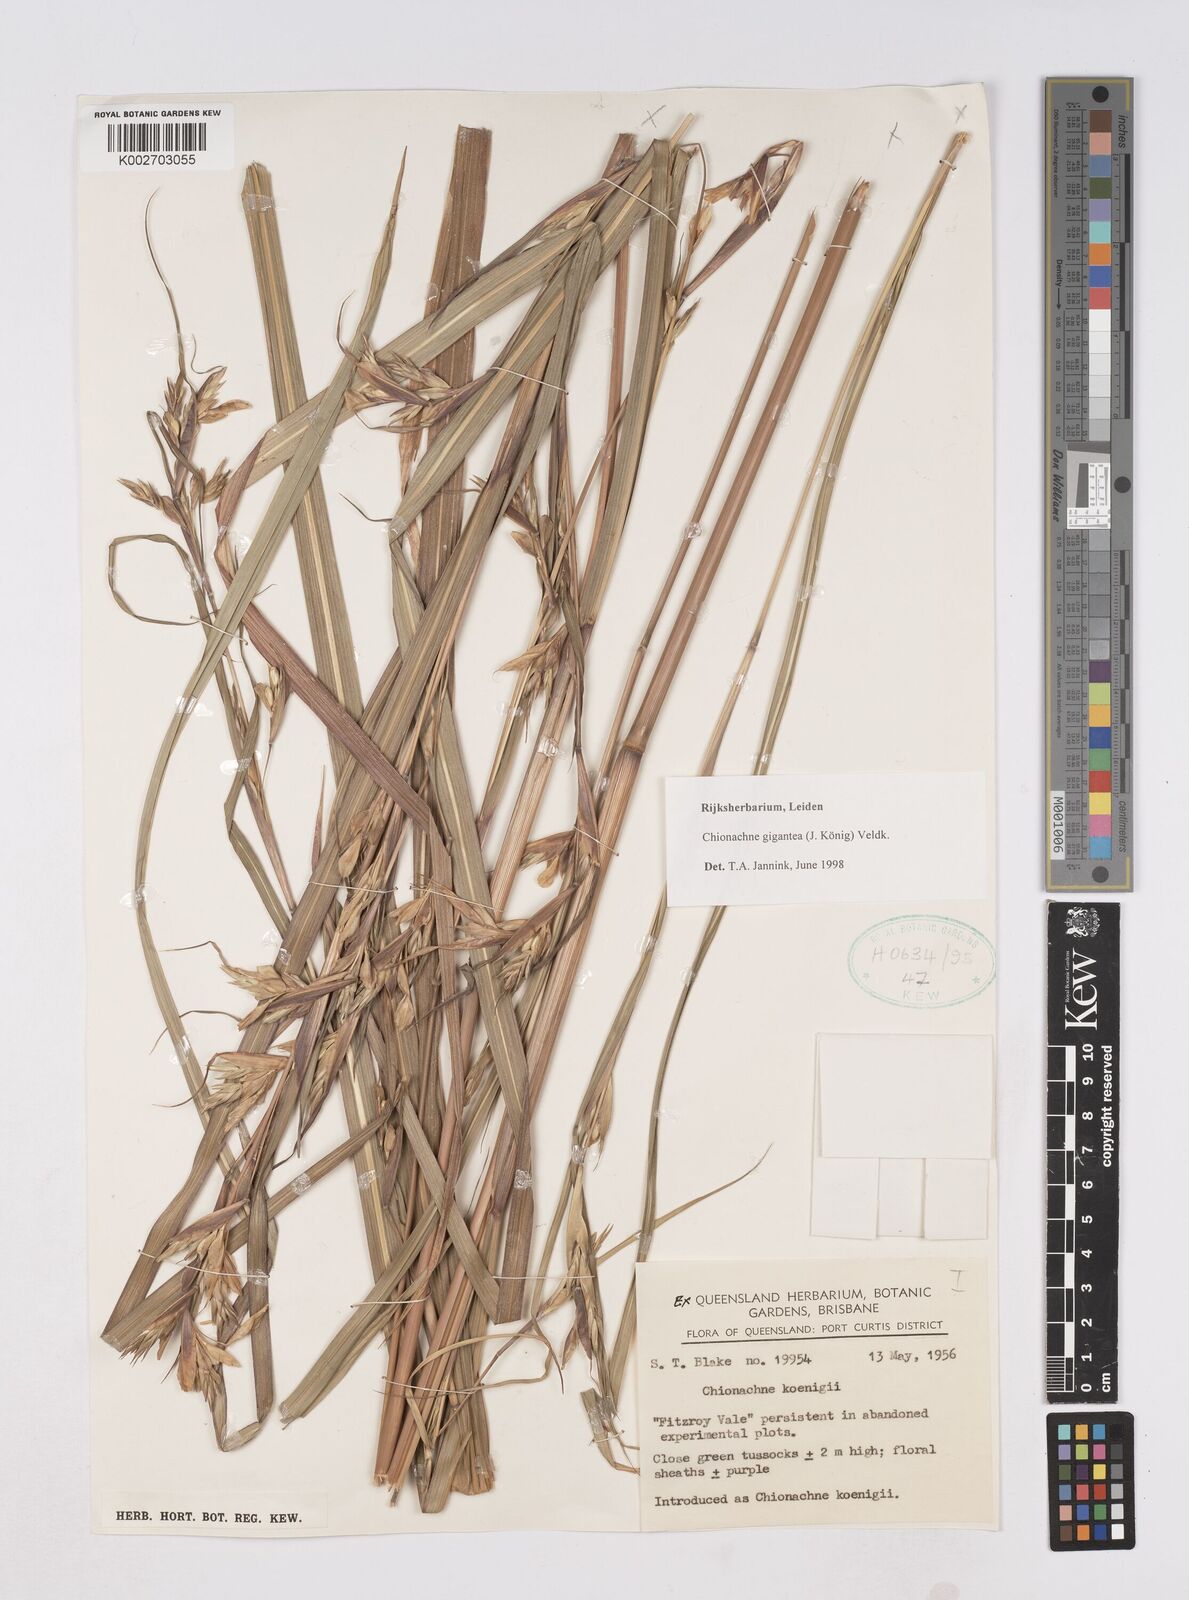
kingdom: Plantae
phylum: Tracheophyta
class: Liliopsida
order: Poales
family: Poaceae
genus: Polytoca
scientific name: Polytoca cyathopoda
